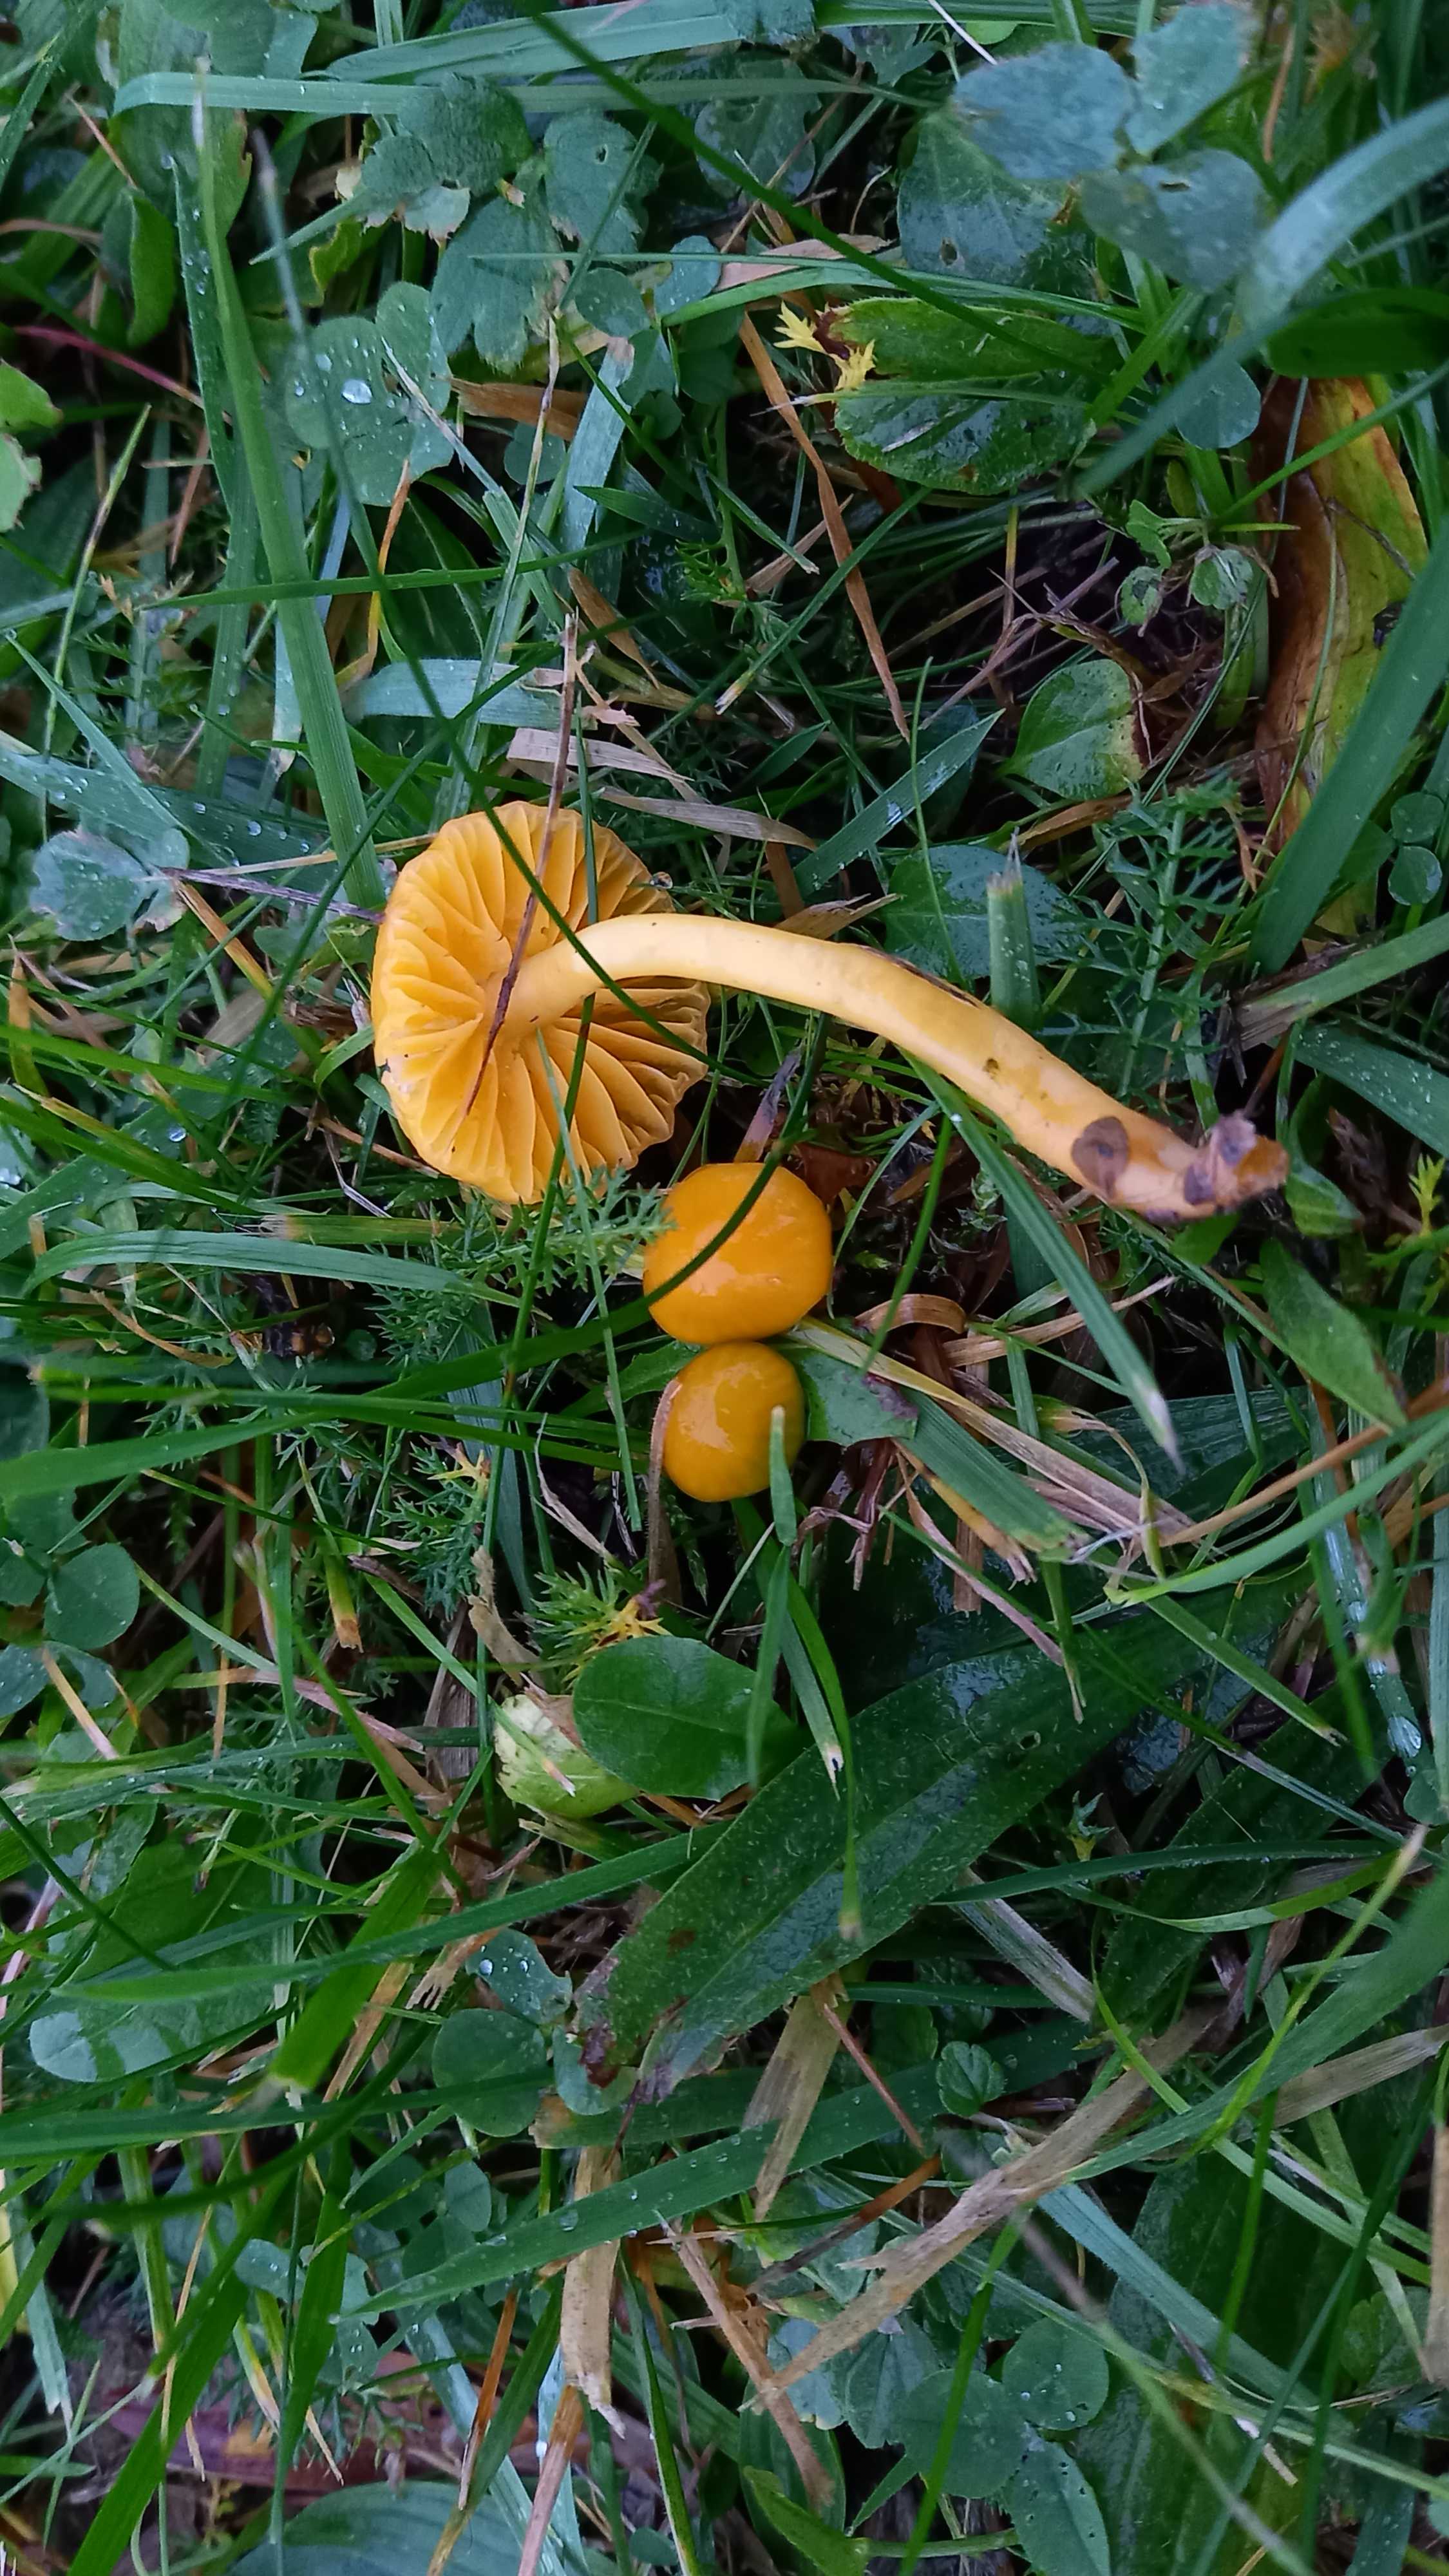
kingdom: Fungi
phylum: Basidiomycota
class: Agaricomycetes
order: Agaricales
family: Hygrophoraceae
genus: Hygrocybe
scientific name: Hygrocybe ceracea
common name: voksgul vokshat
